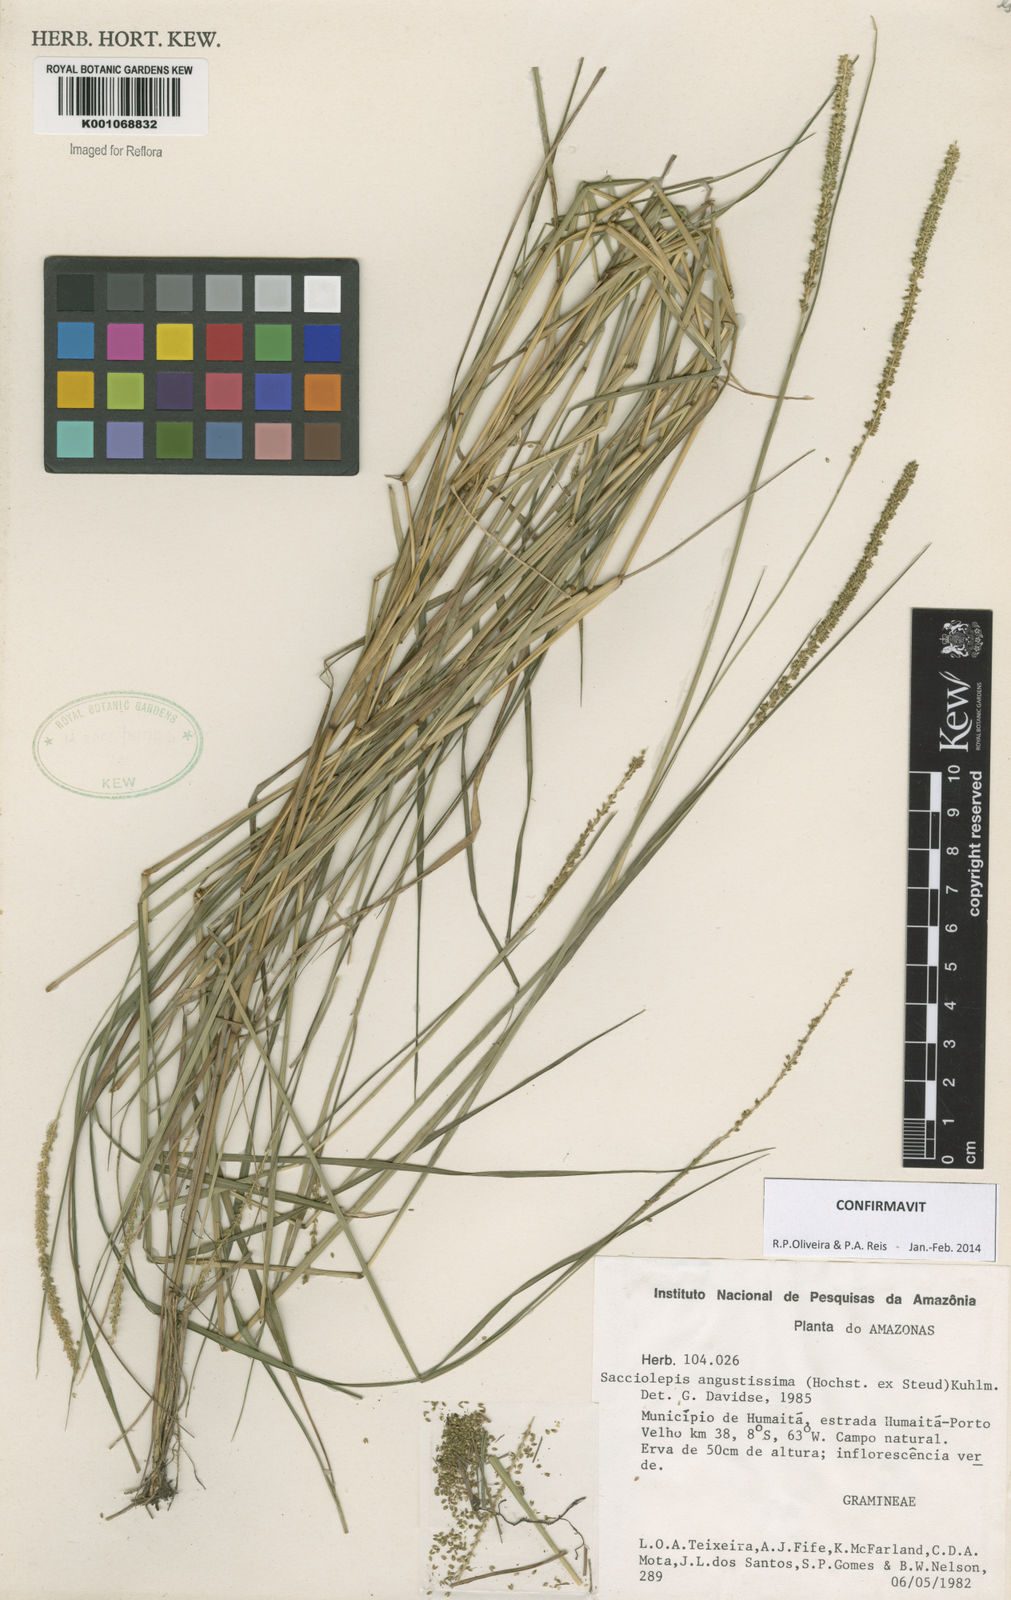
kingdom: Plantae
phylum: Tracheophyta
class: Liliopsida
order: Poales
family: Poaceae
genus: Sacciolepis
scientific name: Sacciolepis angustissima
